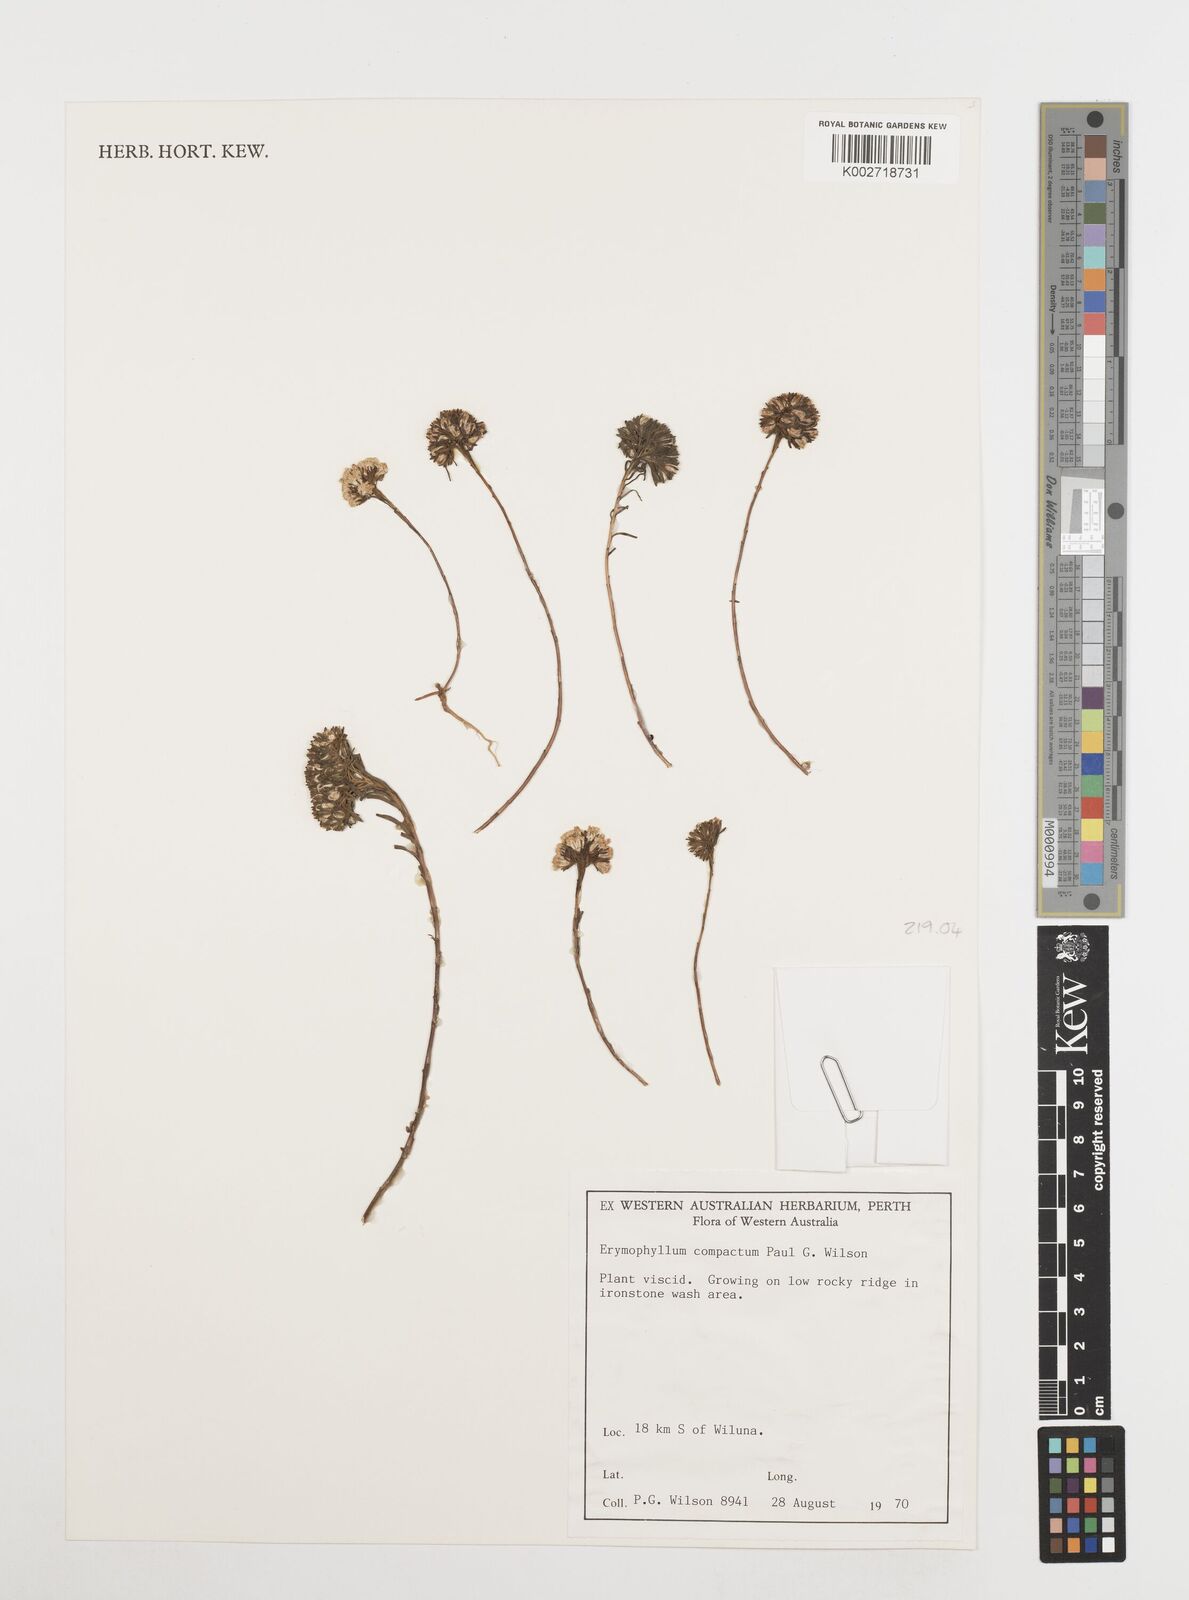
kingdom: Plantae
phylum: Tracheophyta
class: Magnoliopsida
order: Asterales
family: Asteraceae
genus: Erymophyllum
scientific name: Erymophyllum compactum
